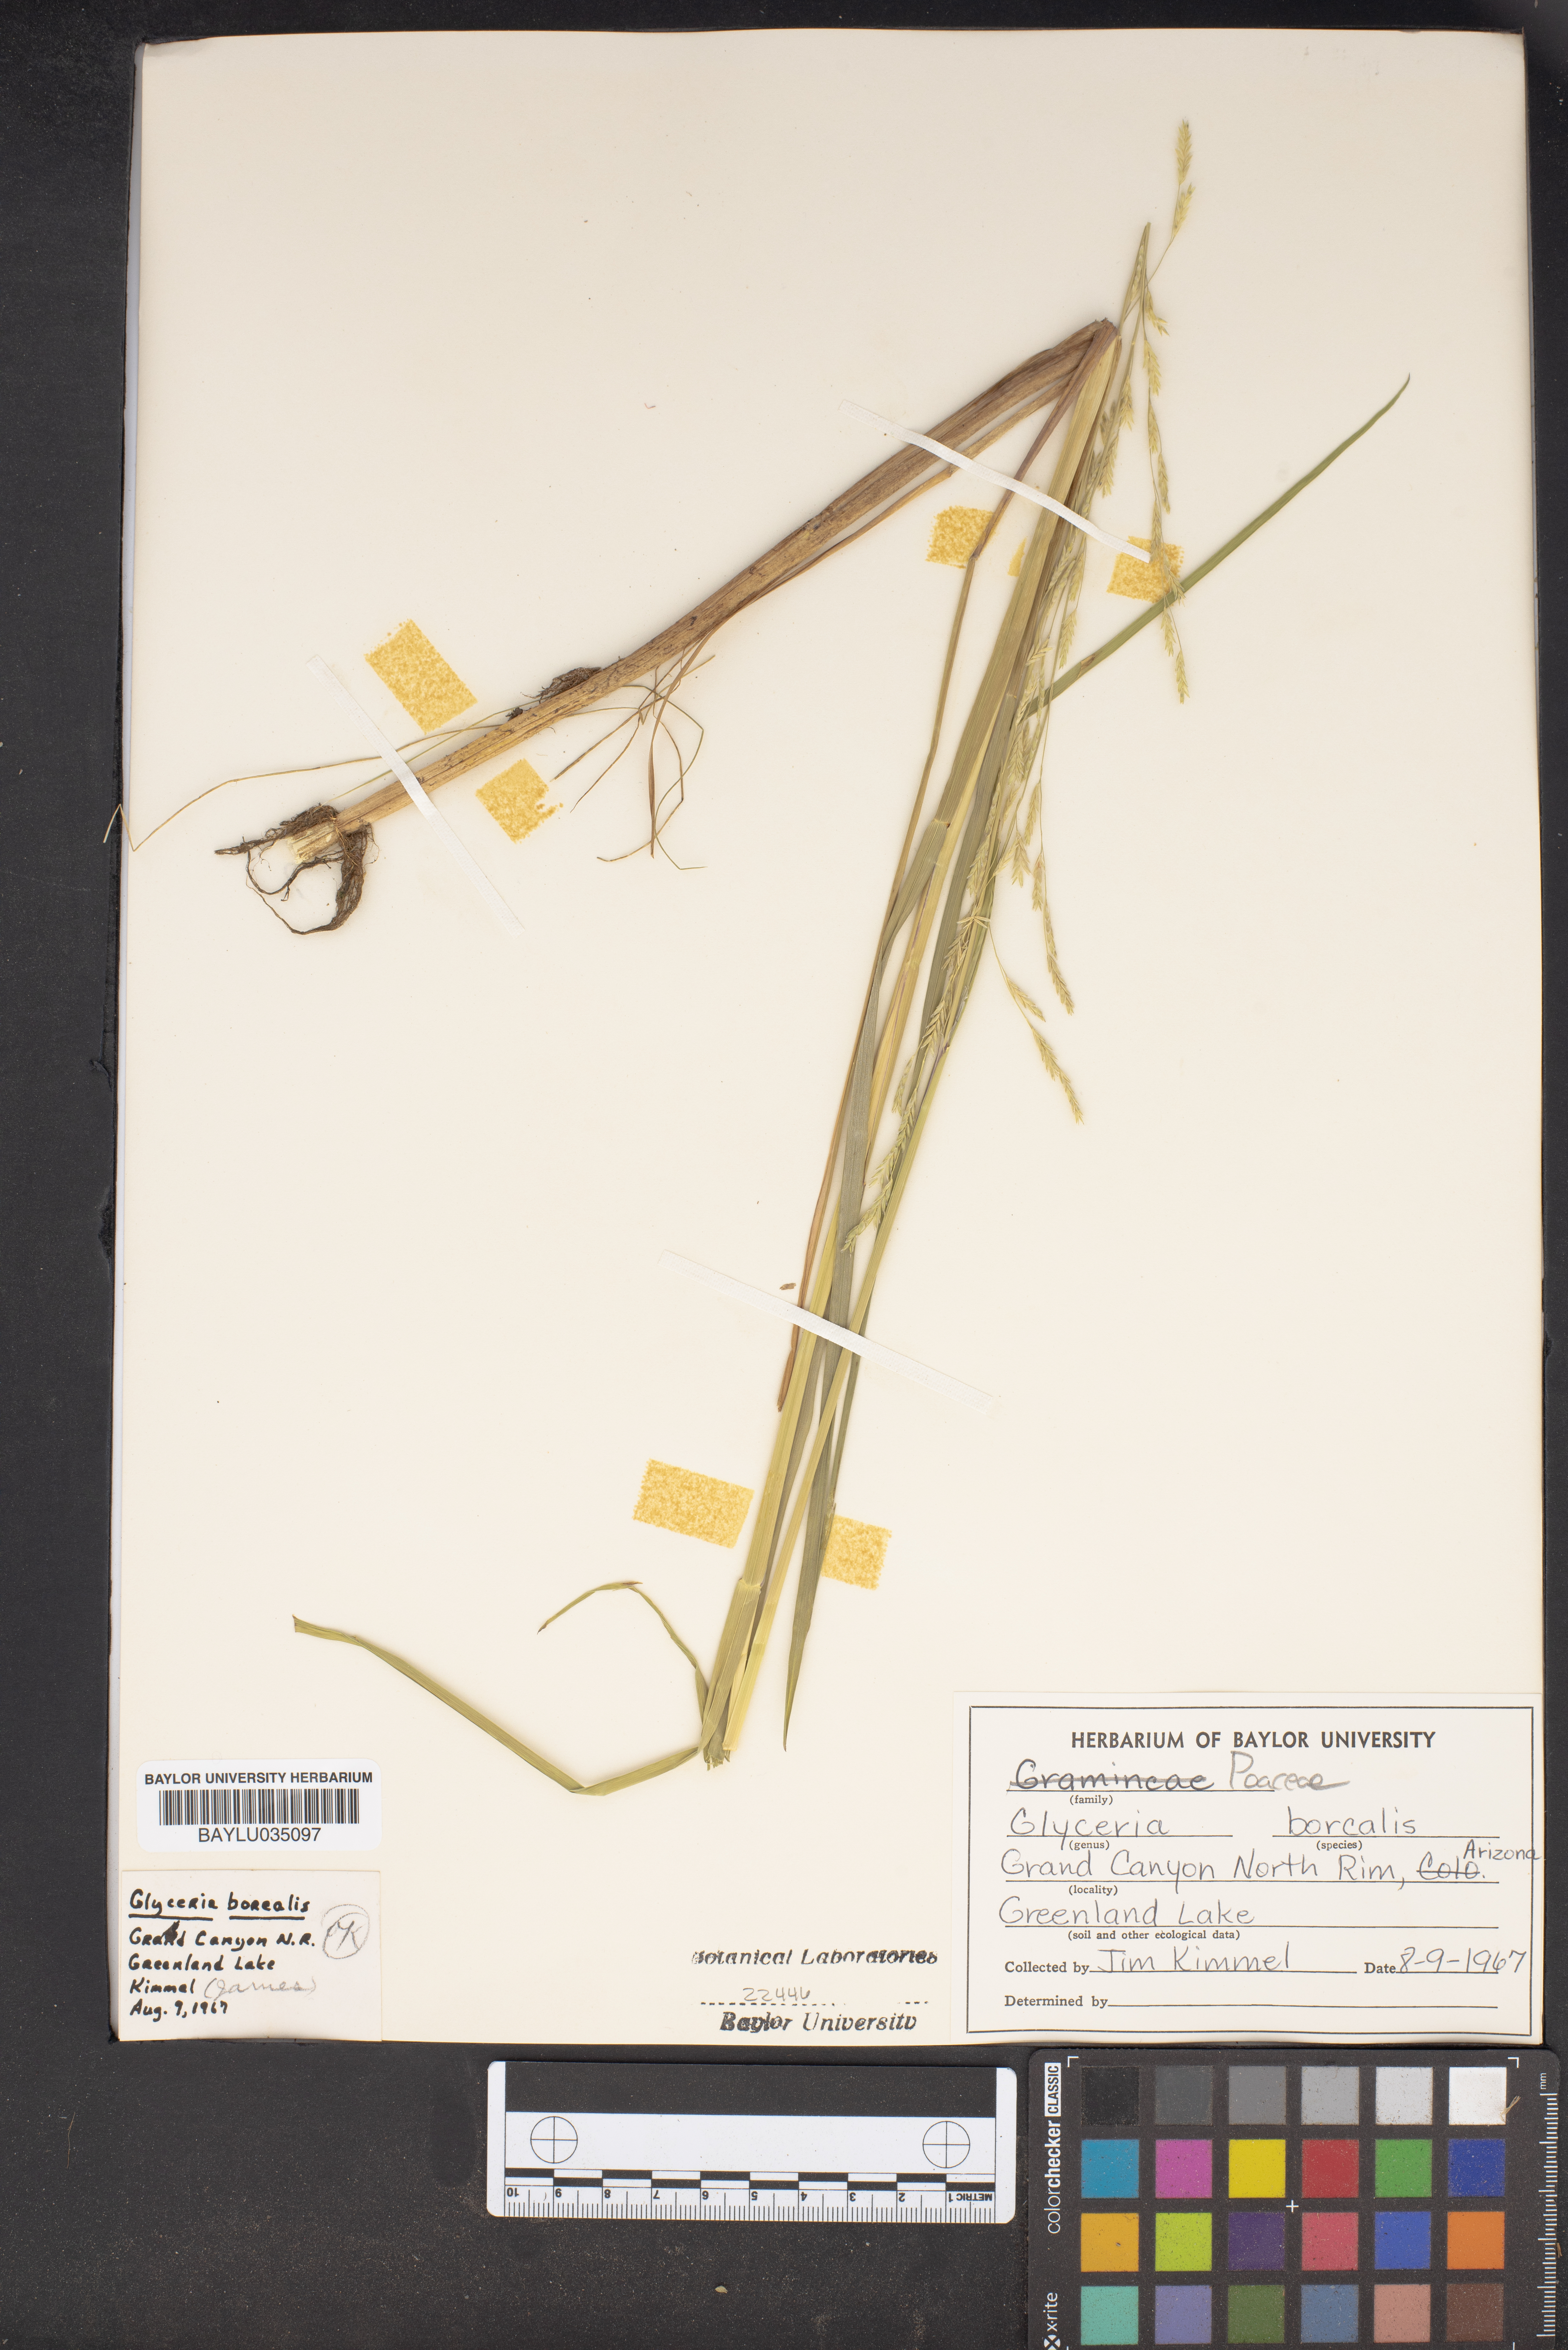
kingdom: Plantae
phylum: Tracheophyta
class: Liliopsida
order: Poales
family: Poaceae
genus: Glyceria
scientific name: Glyceria borealis
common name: Boreal glyceria
